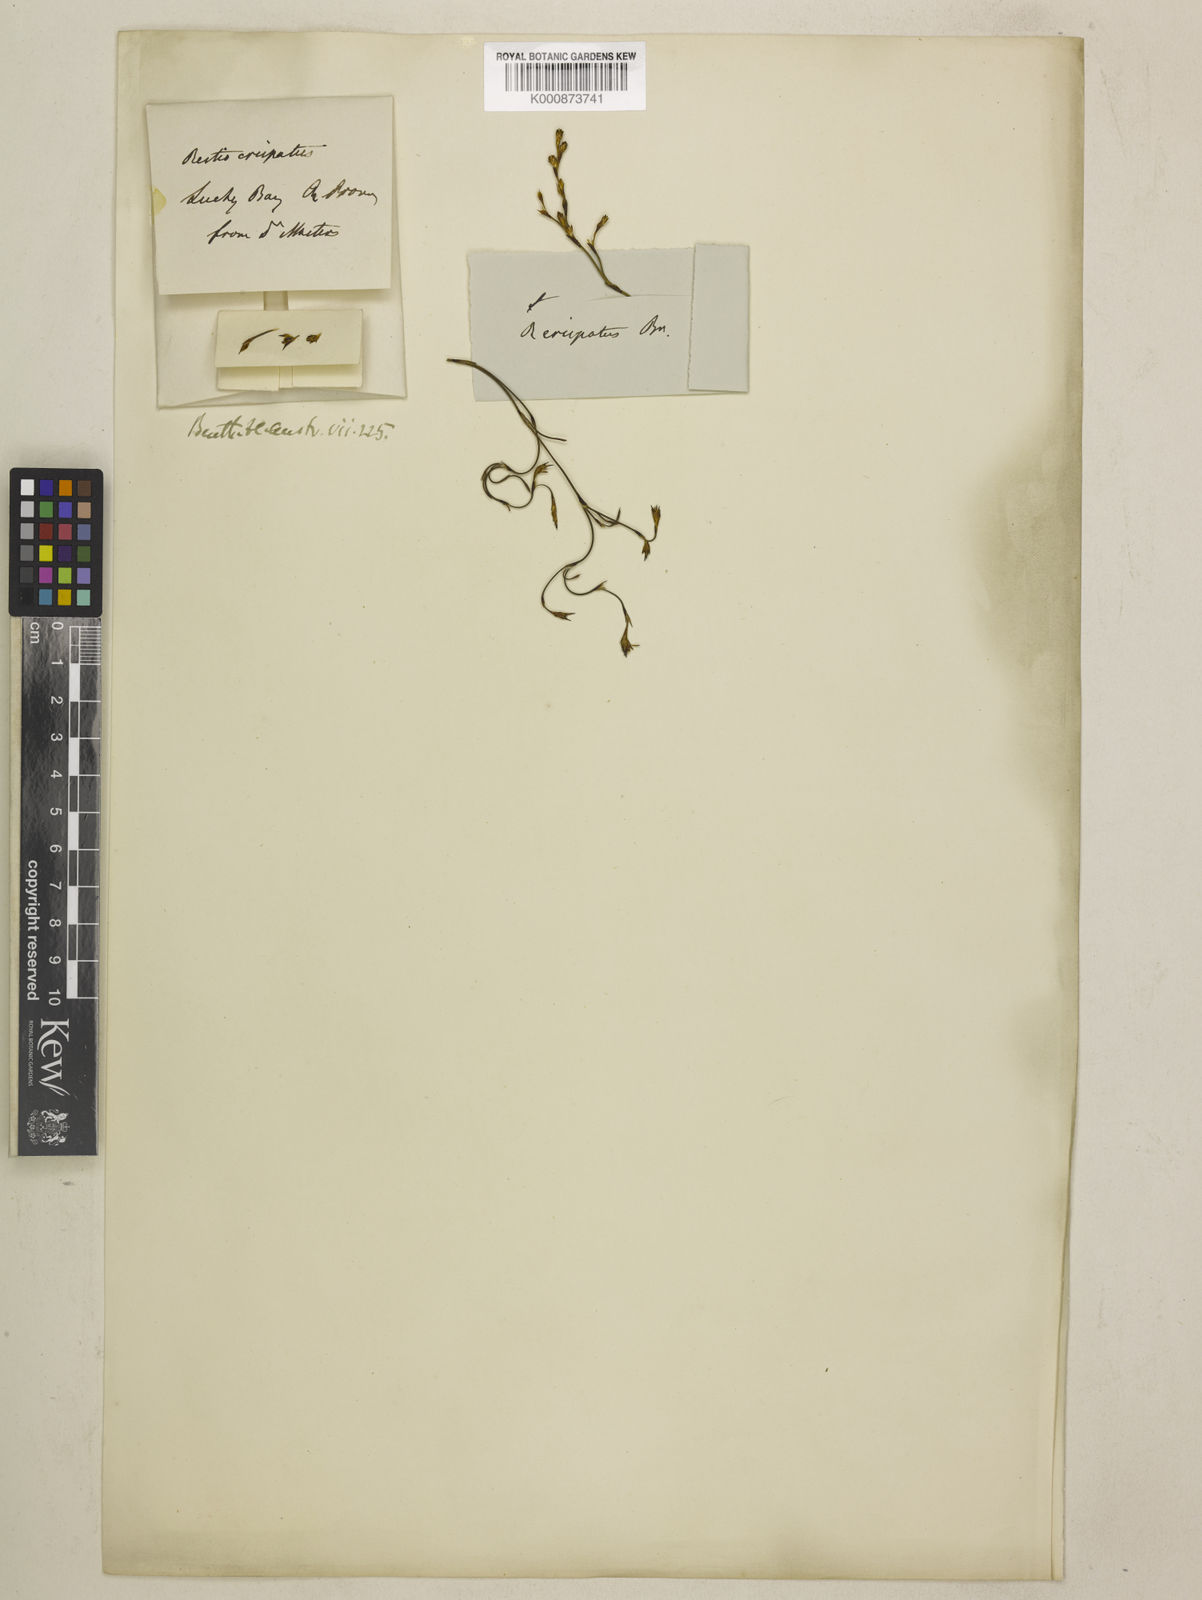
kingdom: Plantae
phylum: Tracheophyta
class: Liliopsida
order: Poales
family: Restionaceae
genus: Chordifex
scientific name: Chordifex crispatus
